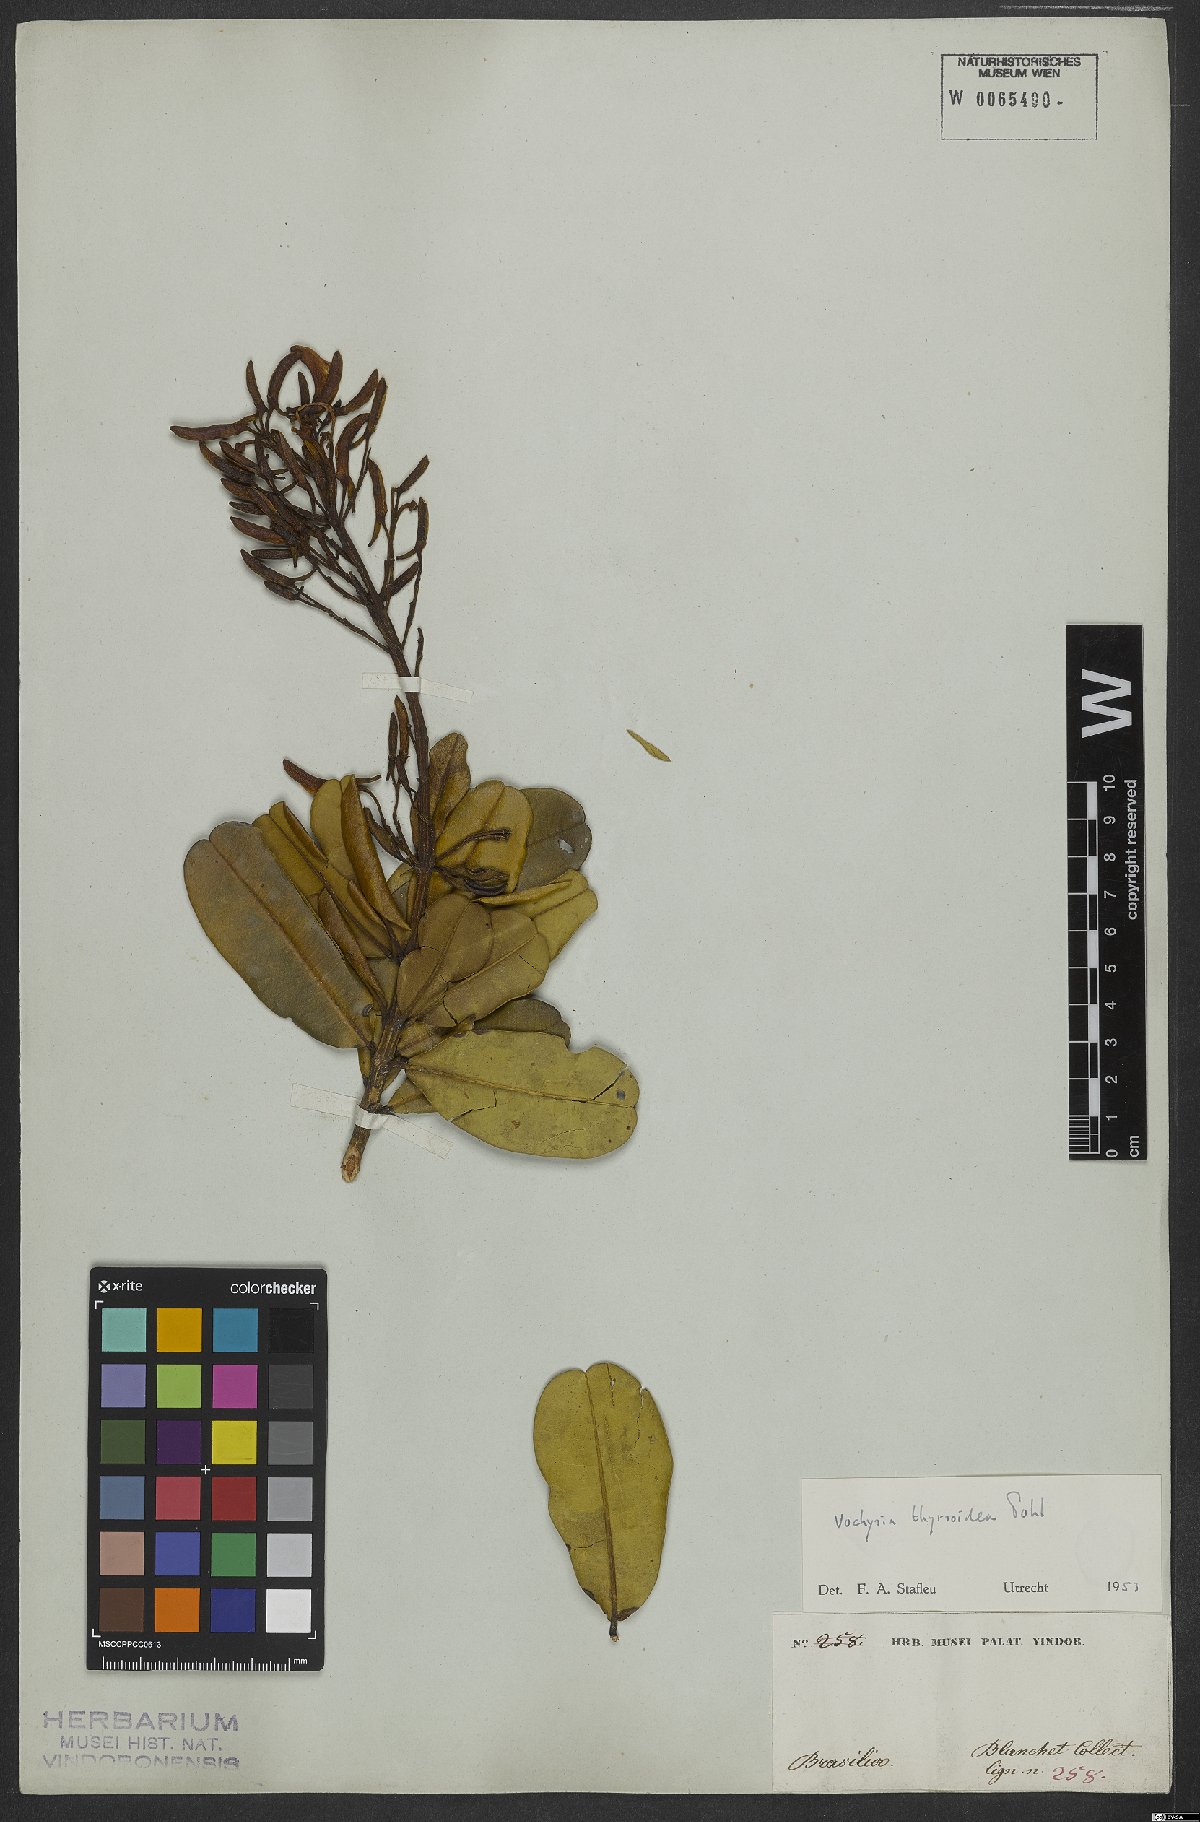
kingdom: Plantae
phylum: Tracheophyta
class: Magnoliopsida
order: Myrtales
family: Vochysiaceae
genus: Vochysia
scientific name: Vochysia thyrsoidea
